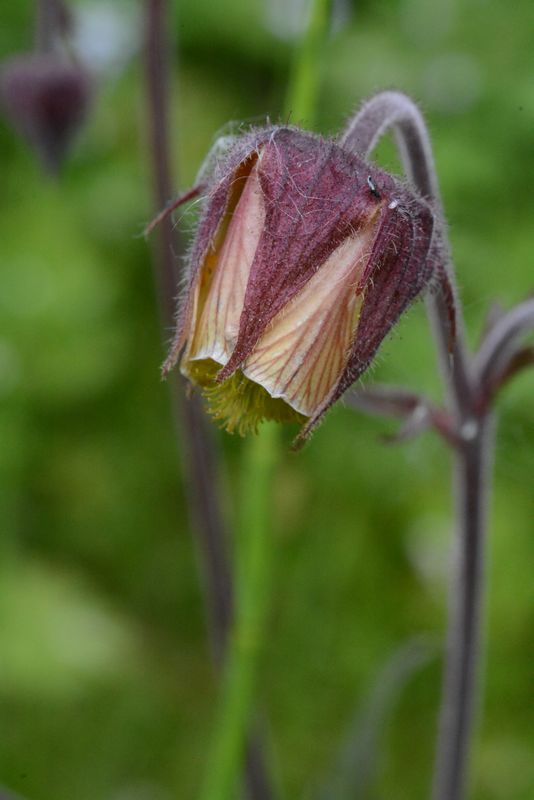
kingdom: Plantae
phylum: Tracheophyta
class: Magnoliopsida
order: Rosales
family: Rosaceae
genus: Geum
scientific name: Geum rivale
